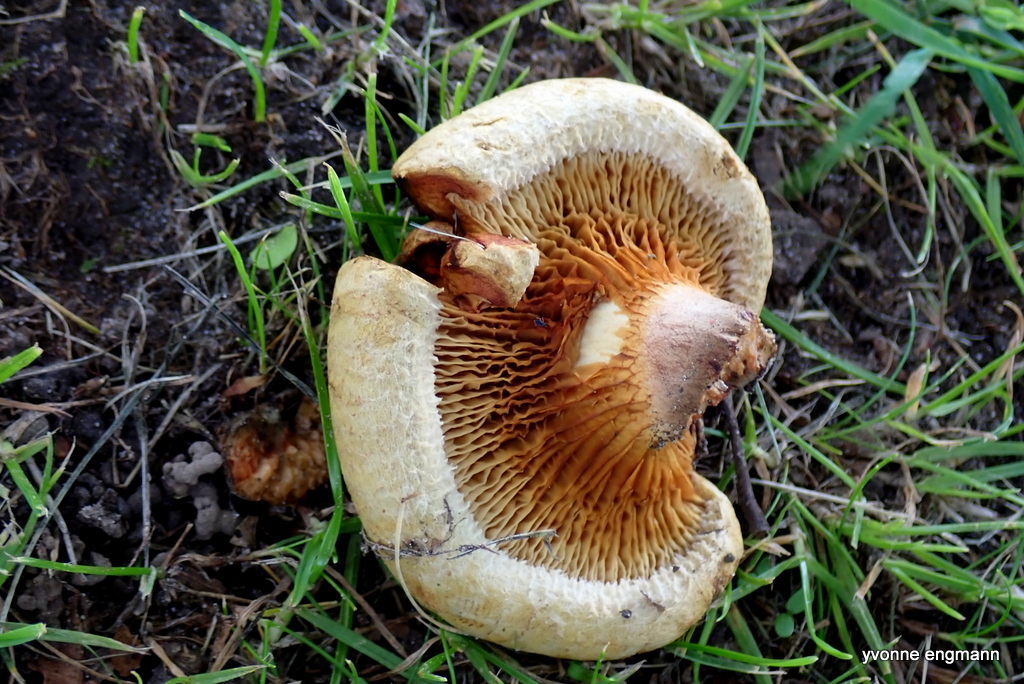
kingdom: Fungi
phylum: Basidiomycota
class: Agaricomycetes
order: Boletales
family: Paxillaceae
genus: Paxillus
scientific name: Paxillus involutus
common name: almindelig netbladhat
